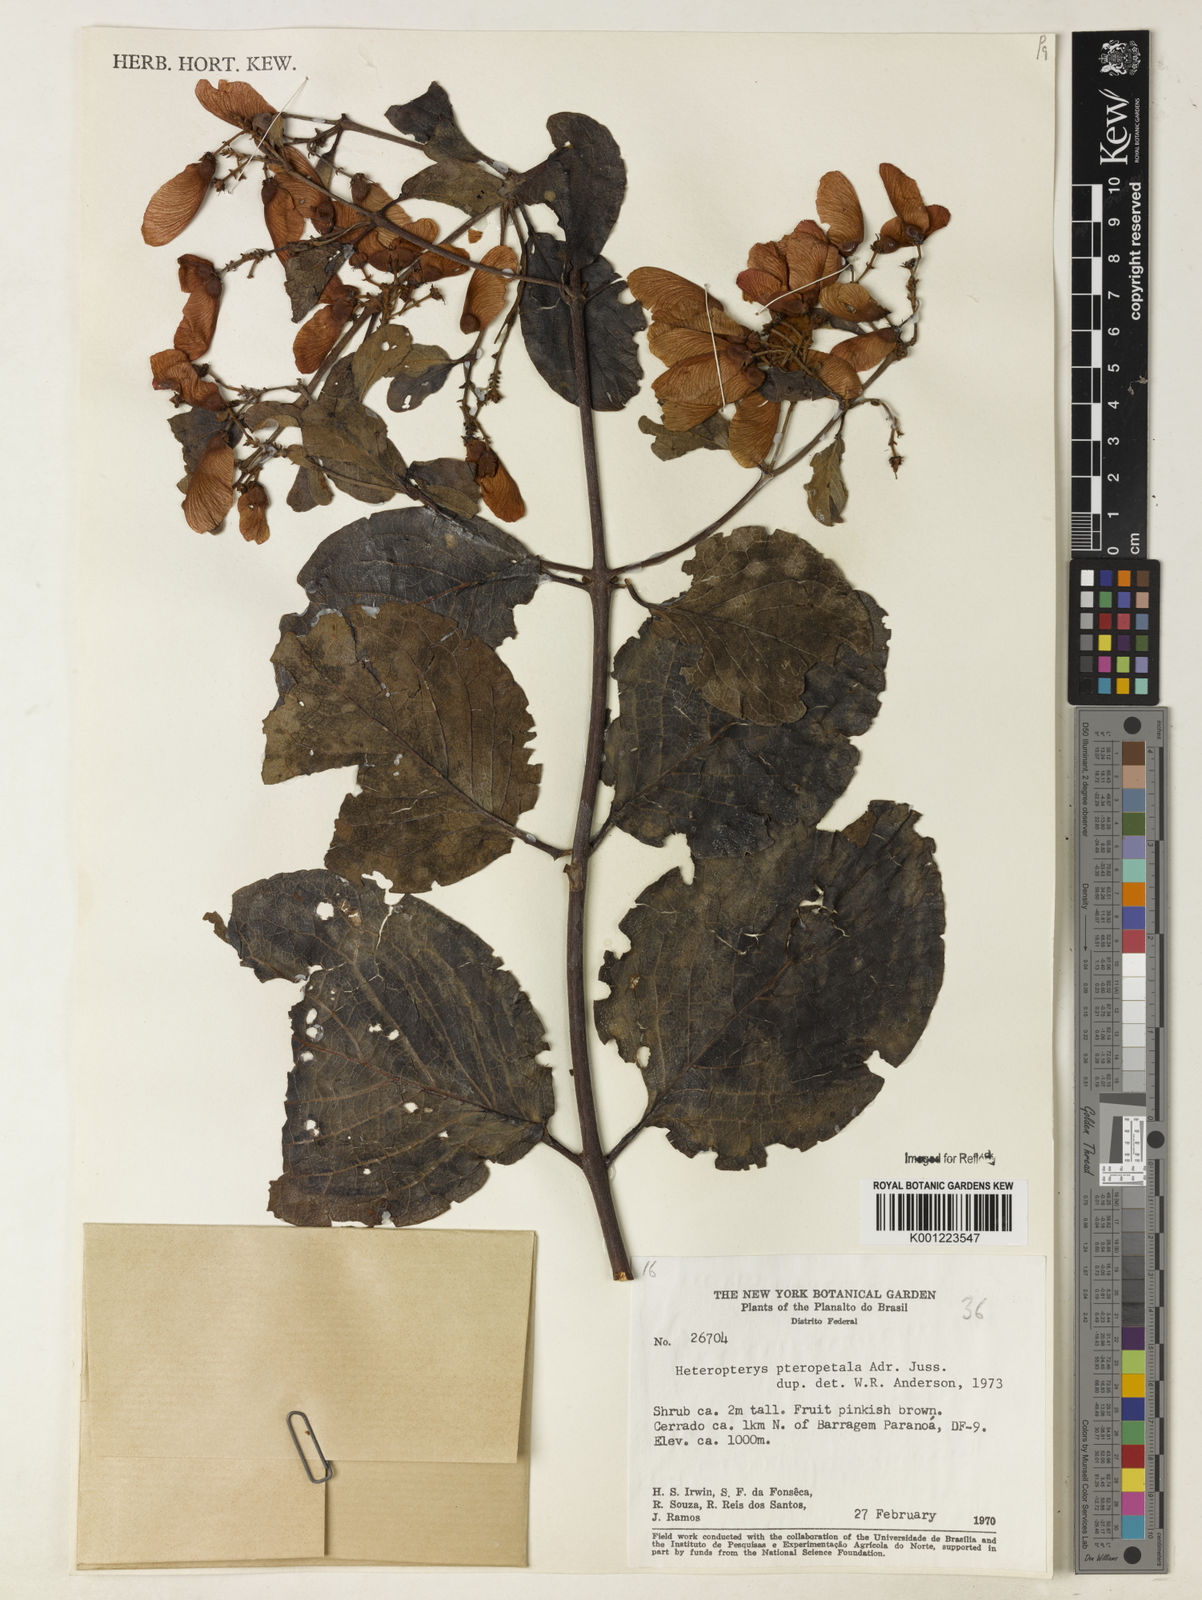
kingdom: Plantae
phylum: Tracheophyta
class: Magnoliopsida
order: Malpighiales
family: Malpighiaceae
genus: Heteropterys
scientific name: Heteropterys pteropetala
